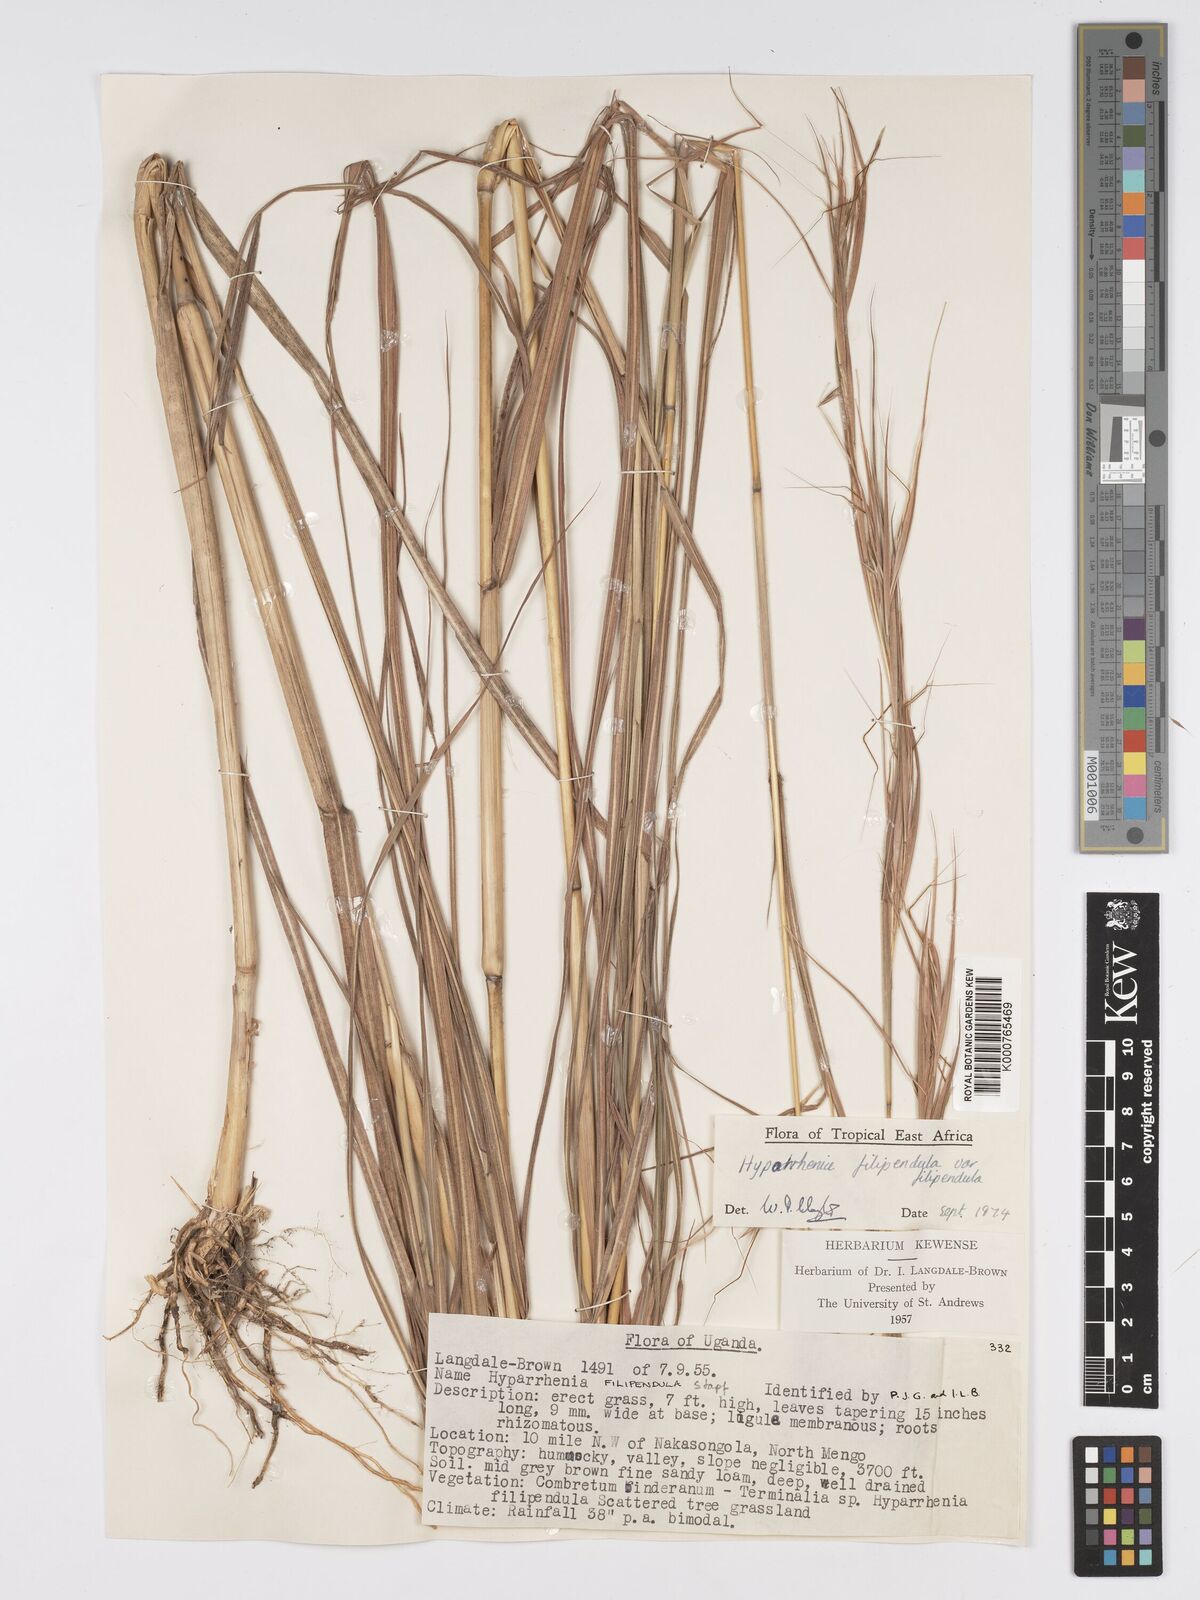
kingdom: Plantae
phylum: Tracheophyta
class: Liliopsida
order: Poales
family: Poaceae
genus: Hyparrhenia
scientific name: Hyparrhenia filipendula
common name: Tambookie grass
